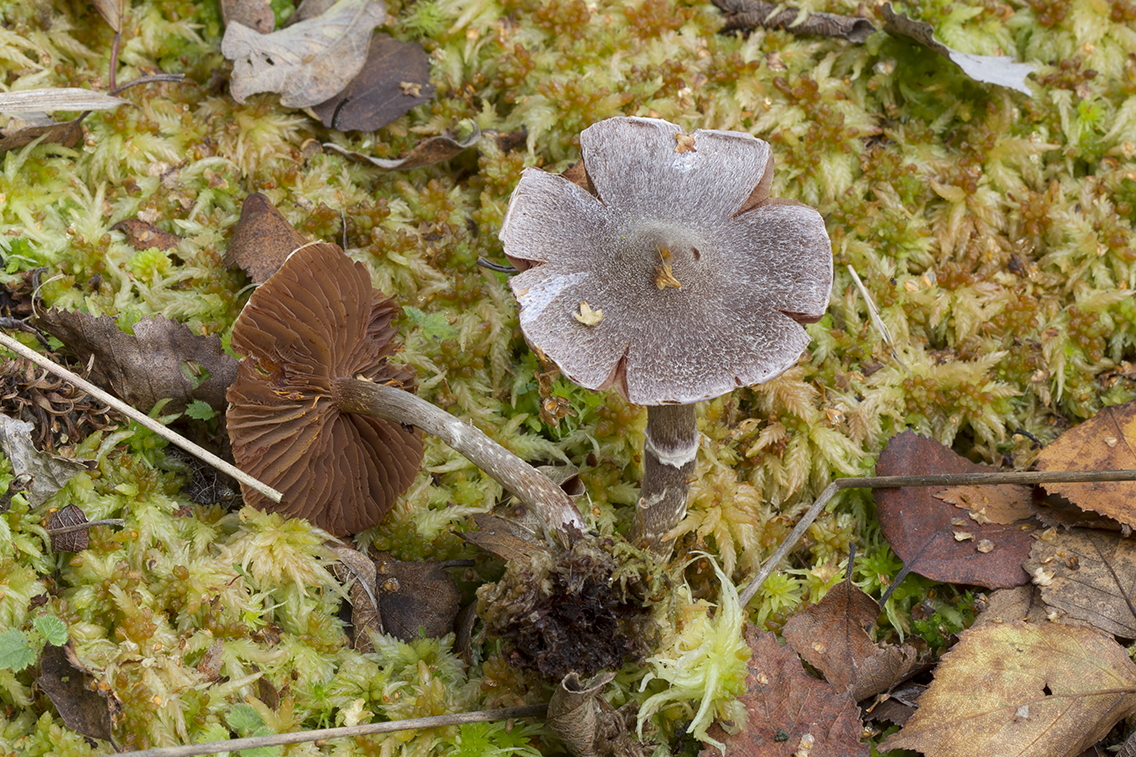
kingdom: Fungi
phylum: Basidiomycota
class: Agaricomycetes
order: Agaricales
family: Cortinariaceae
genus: Cortinarius
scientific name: Cortinarius
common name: pelargonie-slørhat
